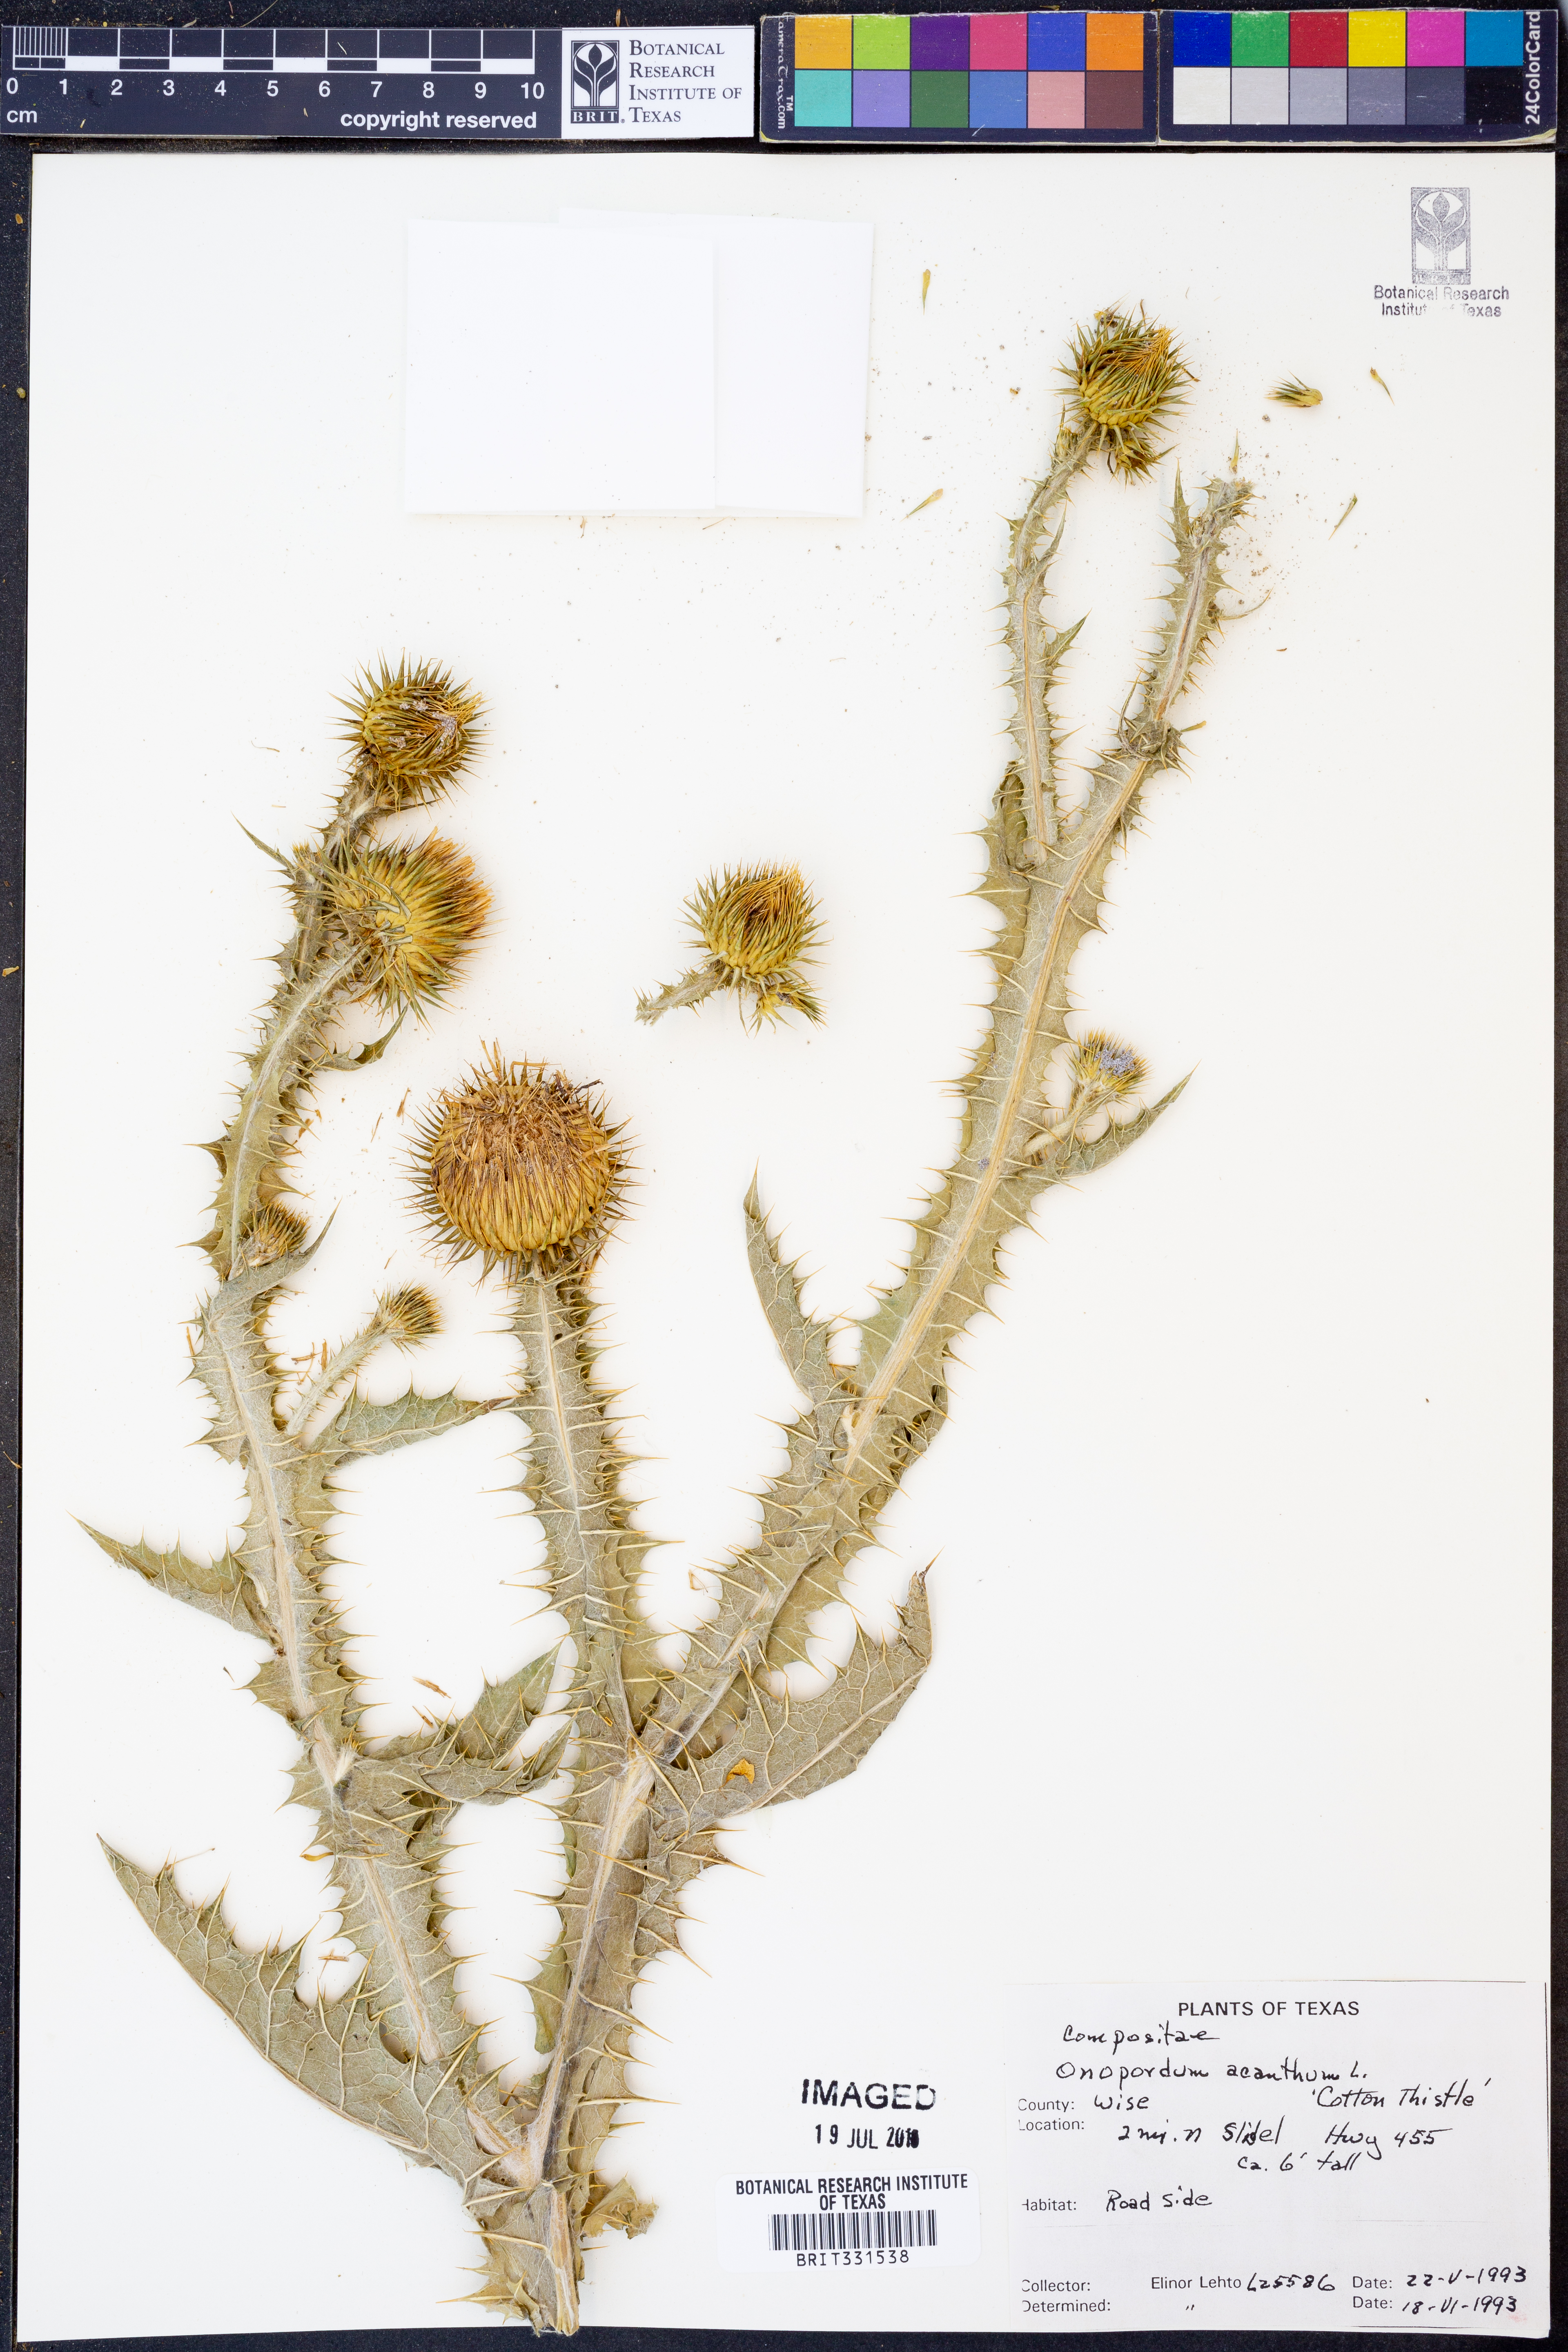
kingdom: Plantae
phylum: Tracheophyta
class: Magnoliopsida
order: Asterales
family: Asteraceae
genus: Onopordum
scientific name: Onopordum acanthium
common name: Scotch thistle
